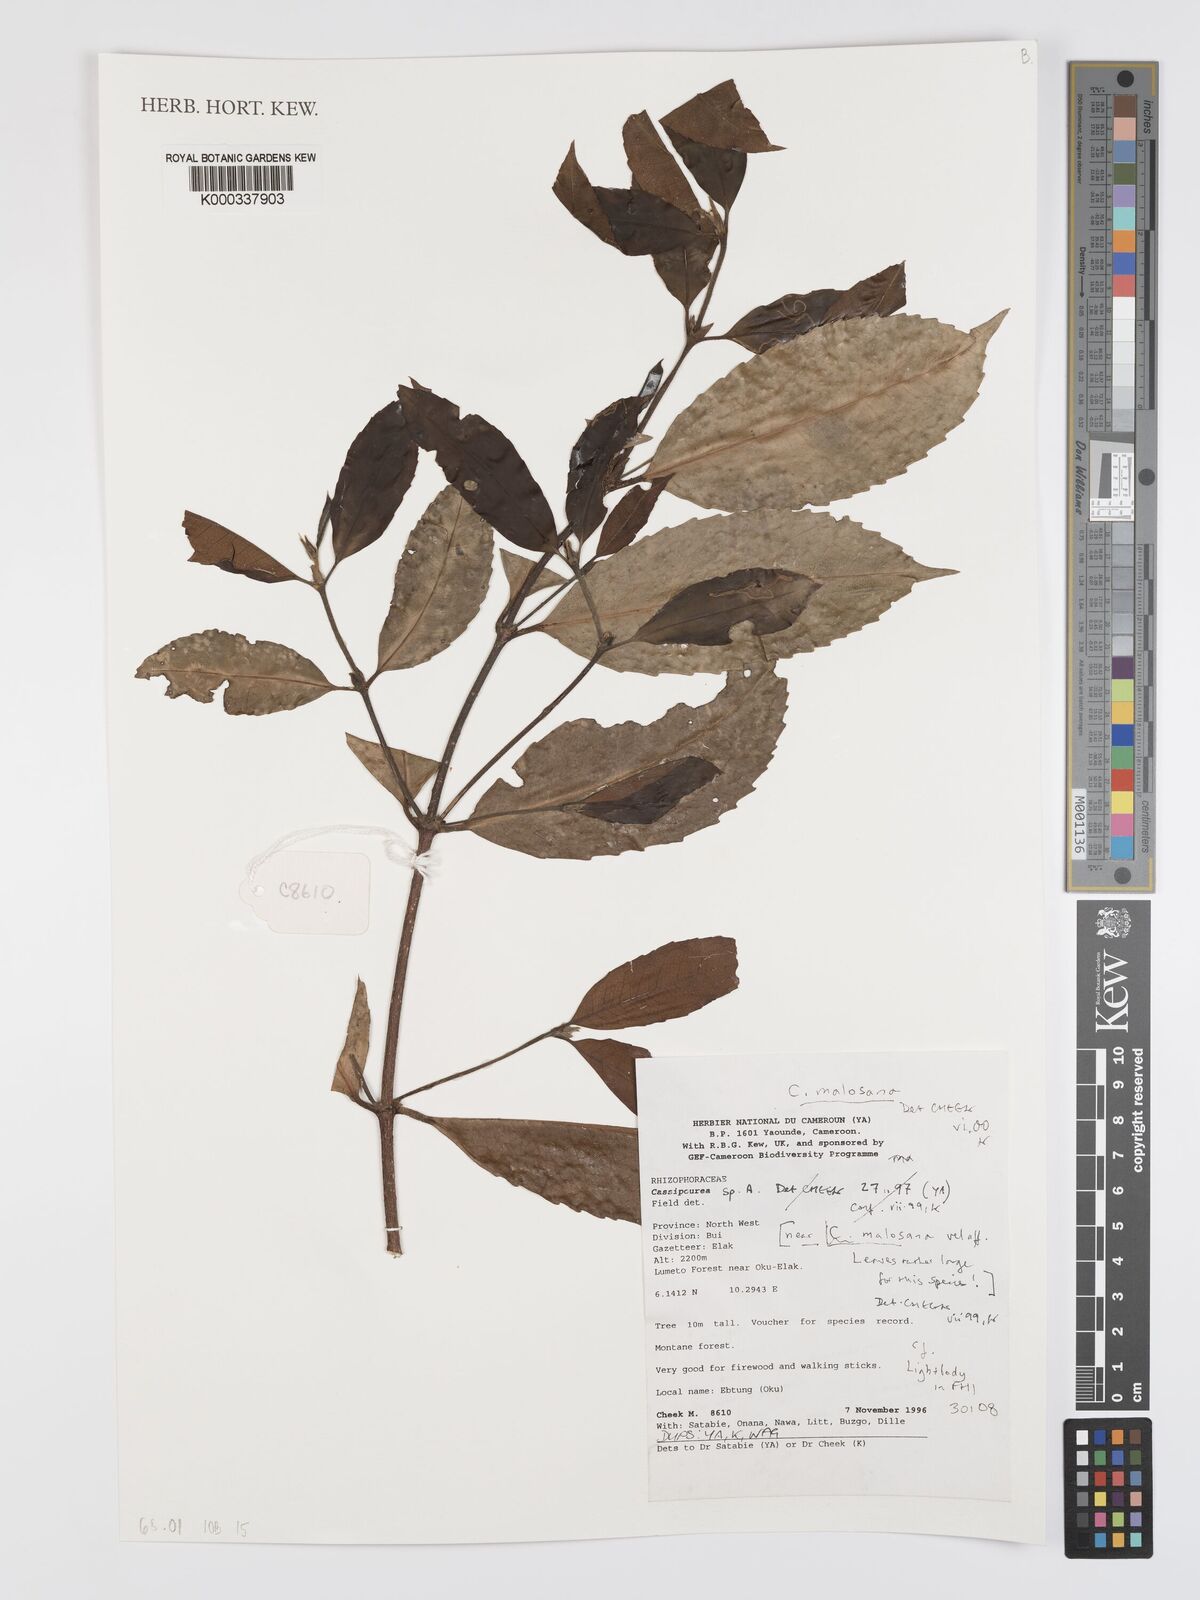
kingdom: Plantae
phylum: Tracheophyta
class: Magnoliopsida
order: Malpighiales
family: Rhizophoraceae
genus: Cassipourea
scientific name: Cassipourea malosana
